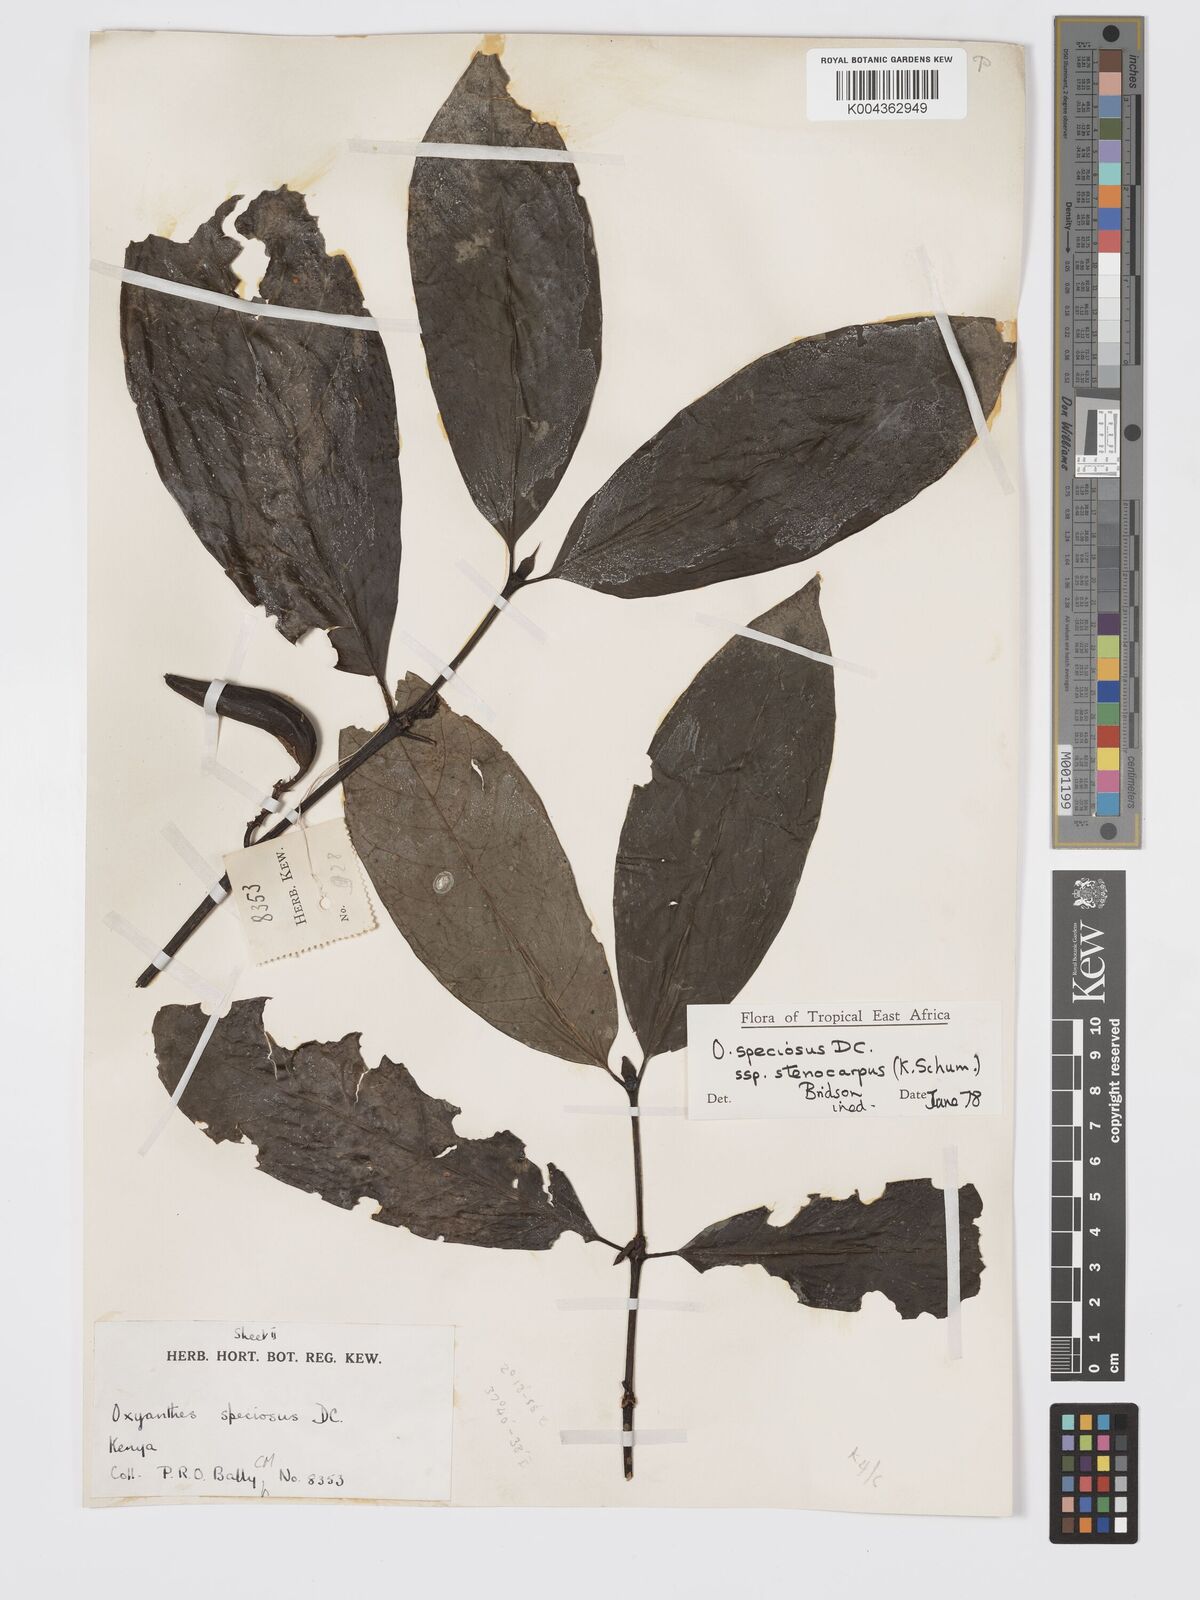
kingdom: Plantae
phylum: Tracheophyta
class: Magnoliopsida
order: Gentianales
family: Rubiaceae
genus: Oxyanthus
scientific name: Oxyanthus speciosus
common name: Whipstick loquat
